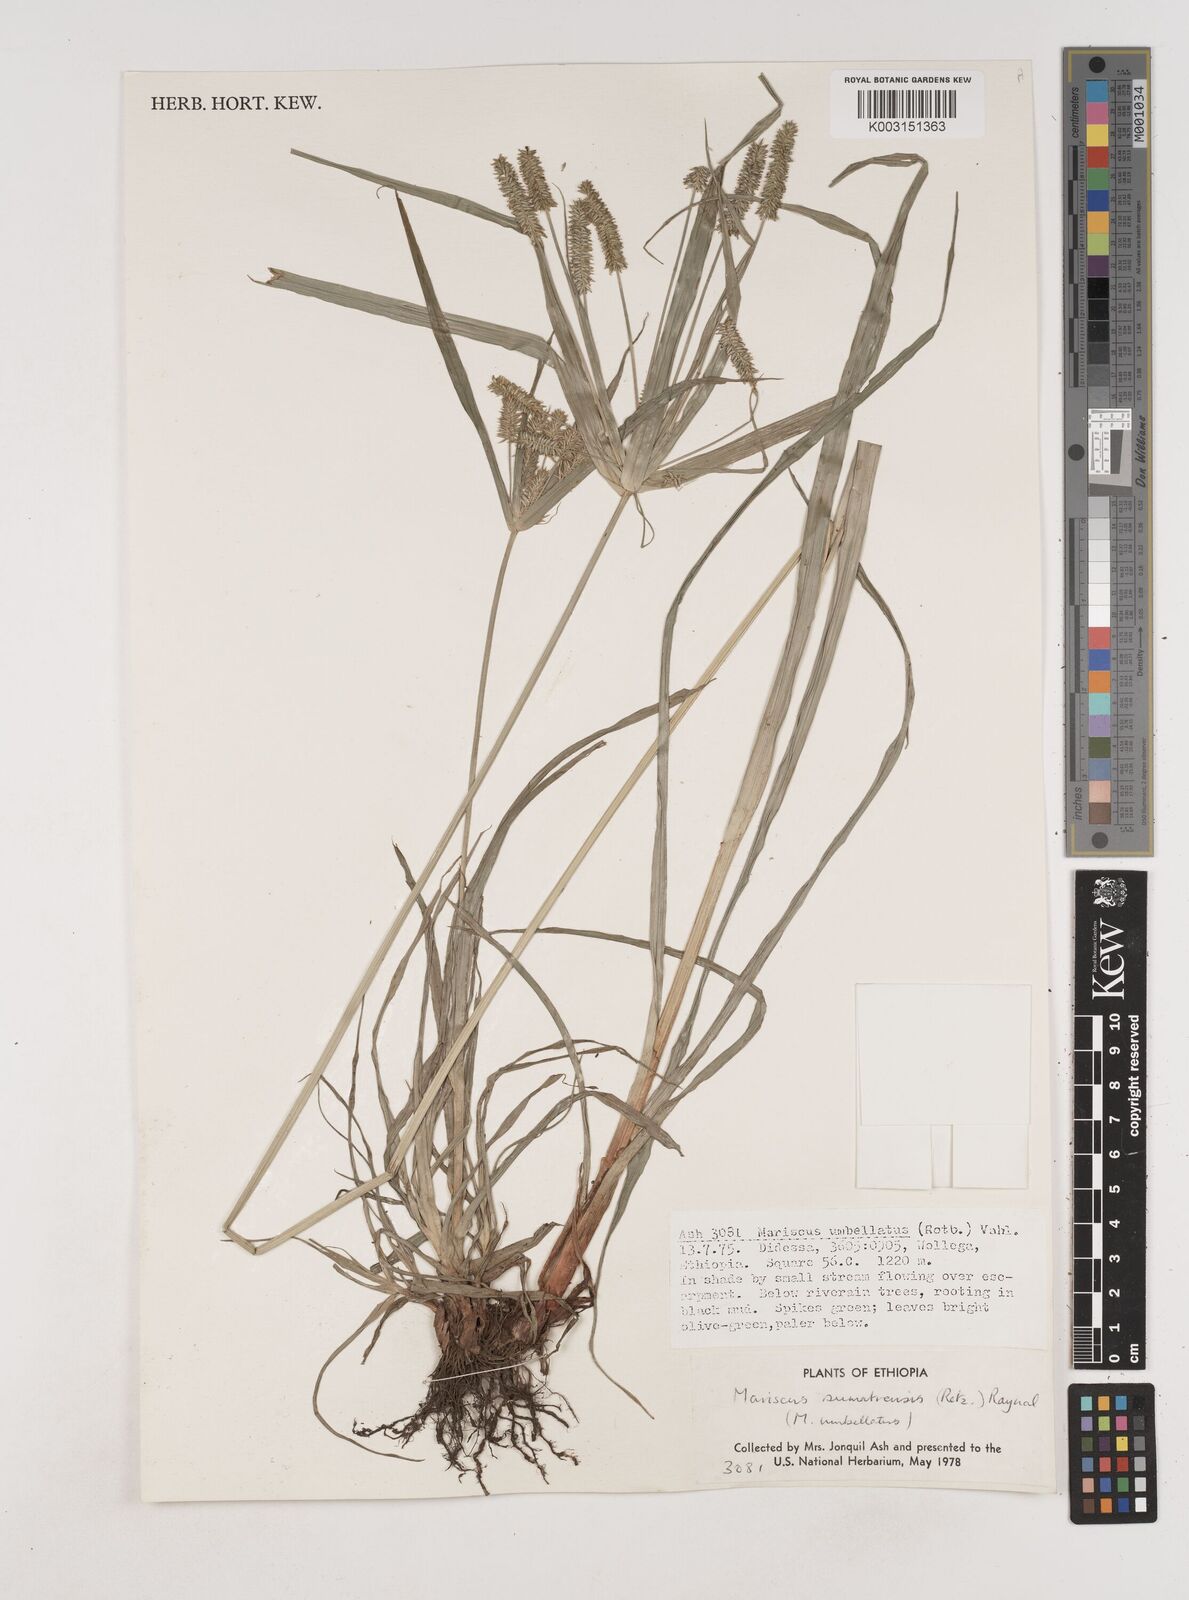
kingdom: Plantae
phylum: Tracheophyta
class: Liliopsida
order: Poales
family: Cyperaceae
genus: Cyperus
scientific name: Cyperus cyperoides
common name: Pacific island flat sedge
